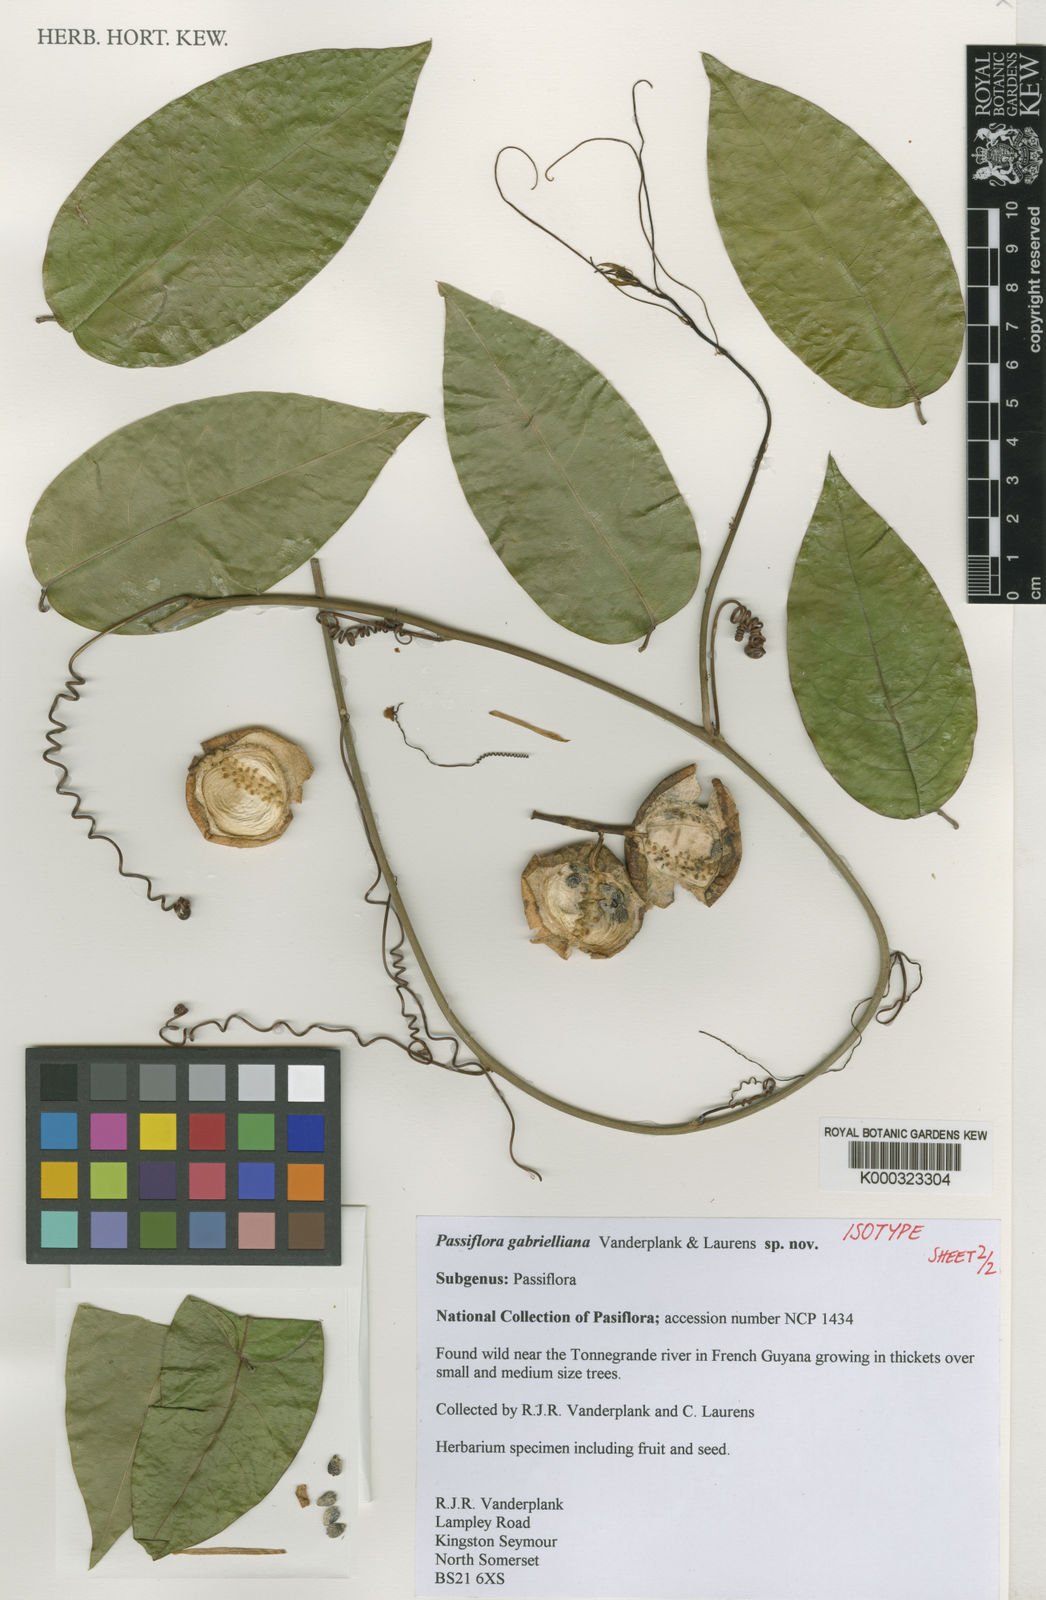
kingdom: Plantae
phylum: Tracheophyta
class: Magnoliopsida
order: Malpighiales
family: Passifloraceae
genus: Passiflora
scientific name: Passiflora
